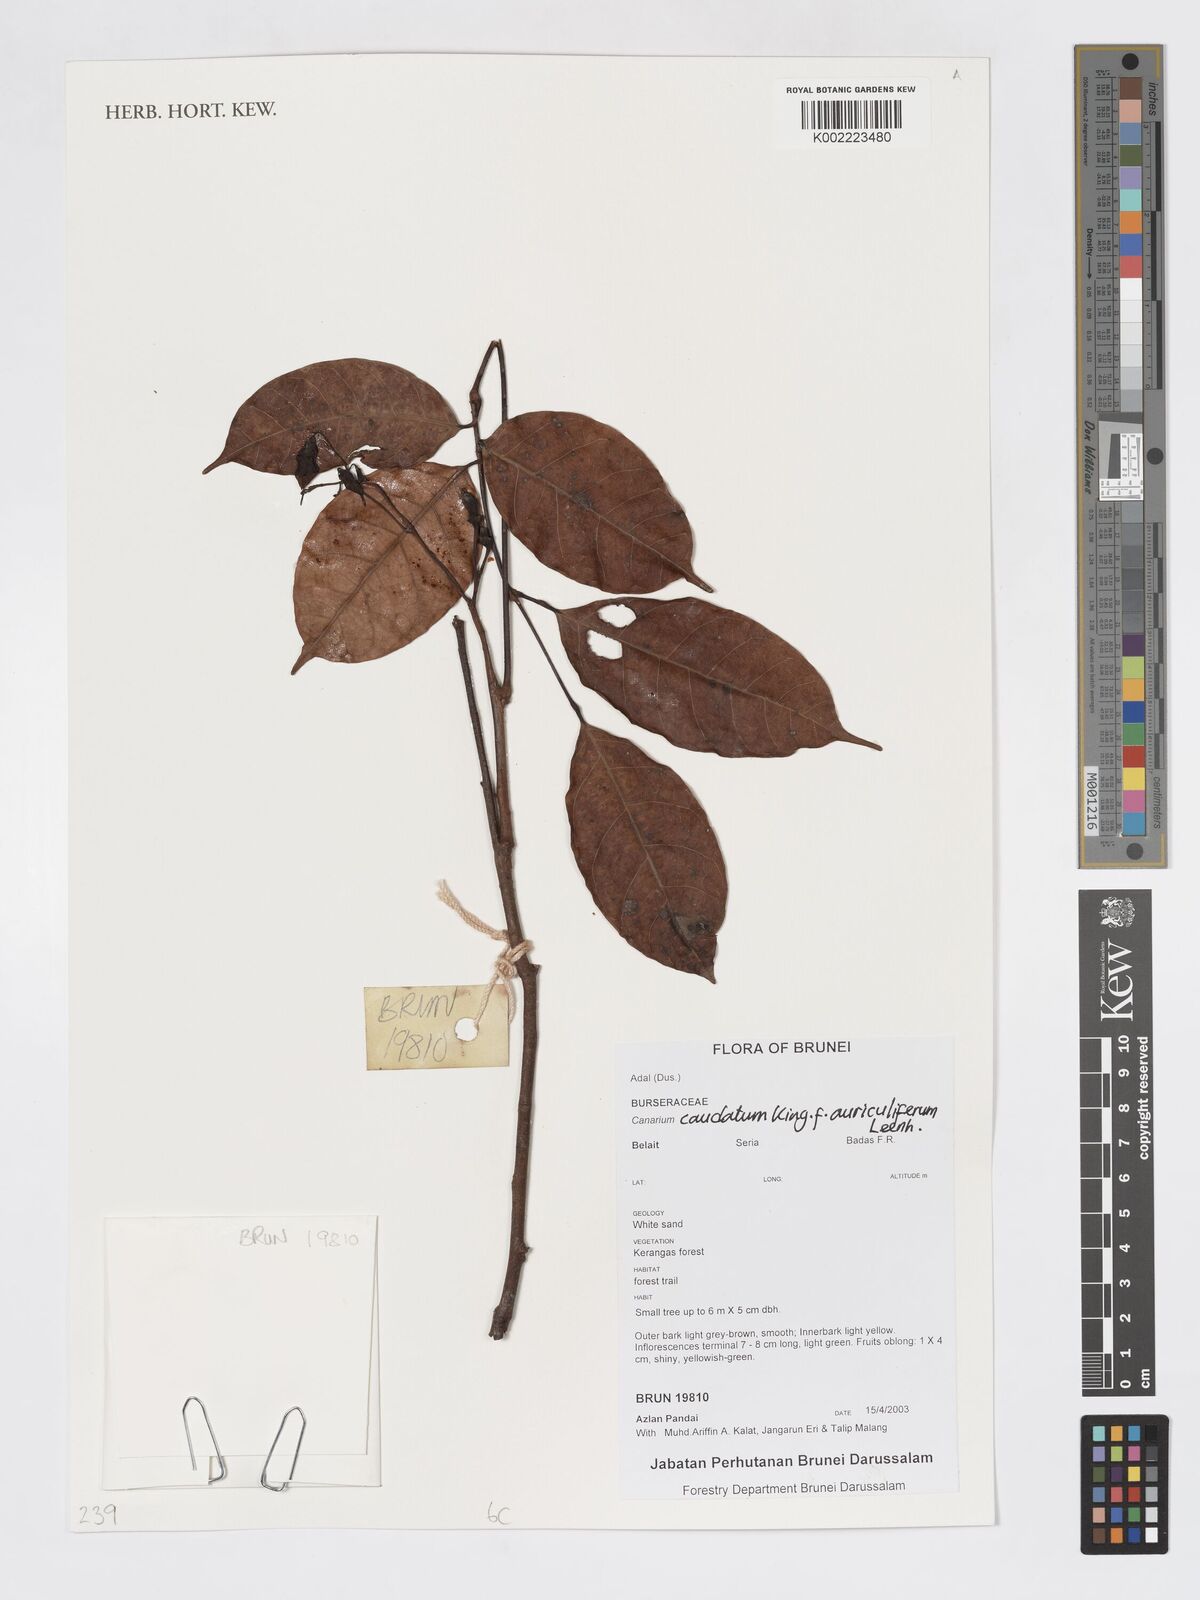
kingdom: Plantae
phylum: Tracheophyta
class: Magnoliopsida
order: Sapindales
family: Burseraceae
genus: Canarium
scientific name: Canarium caudatum
